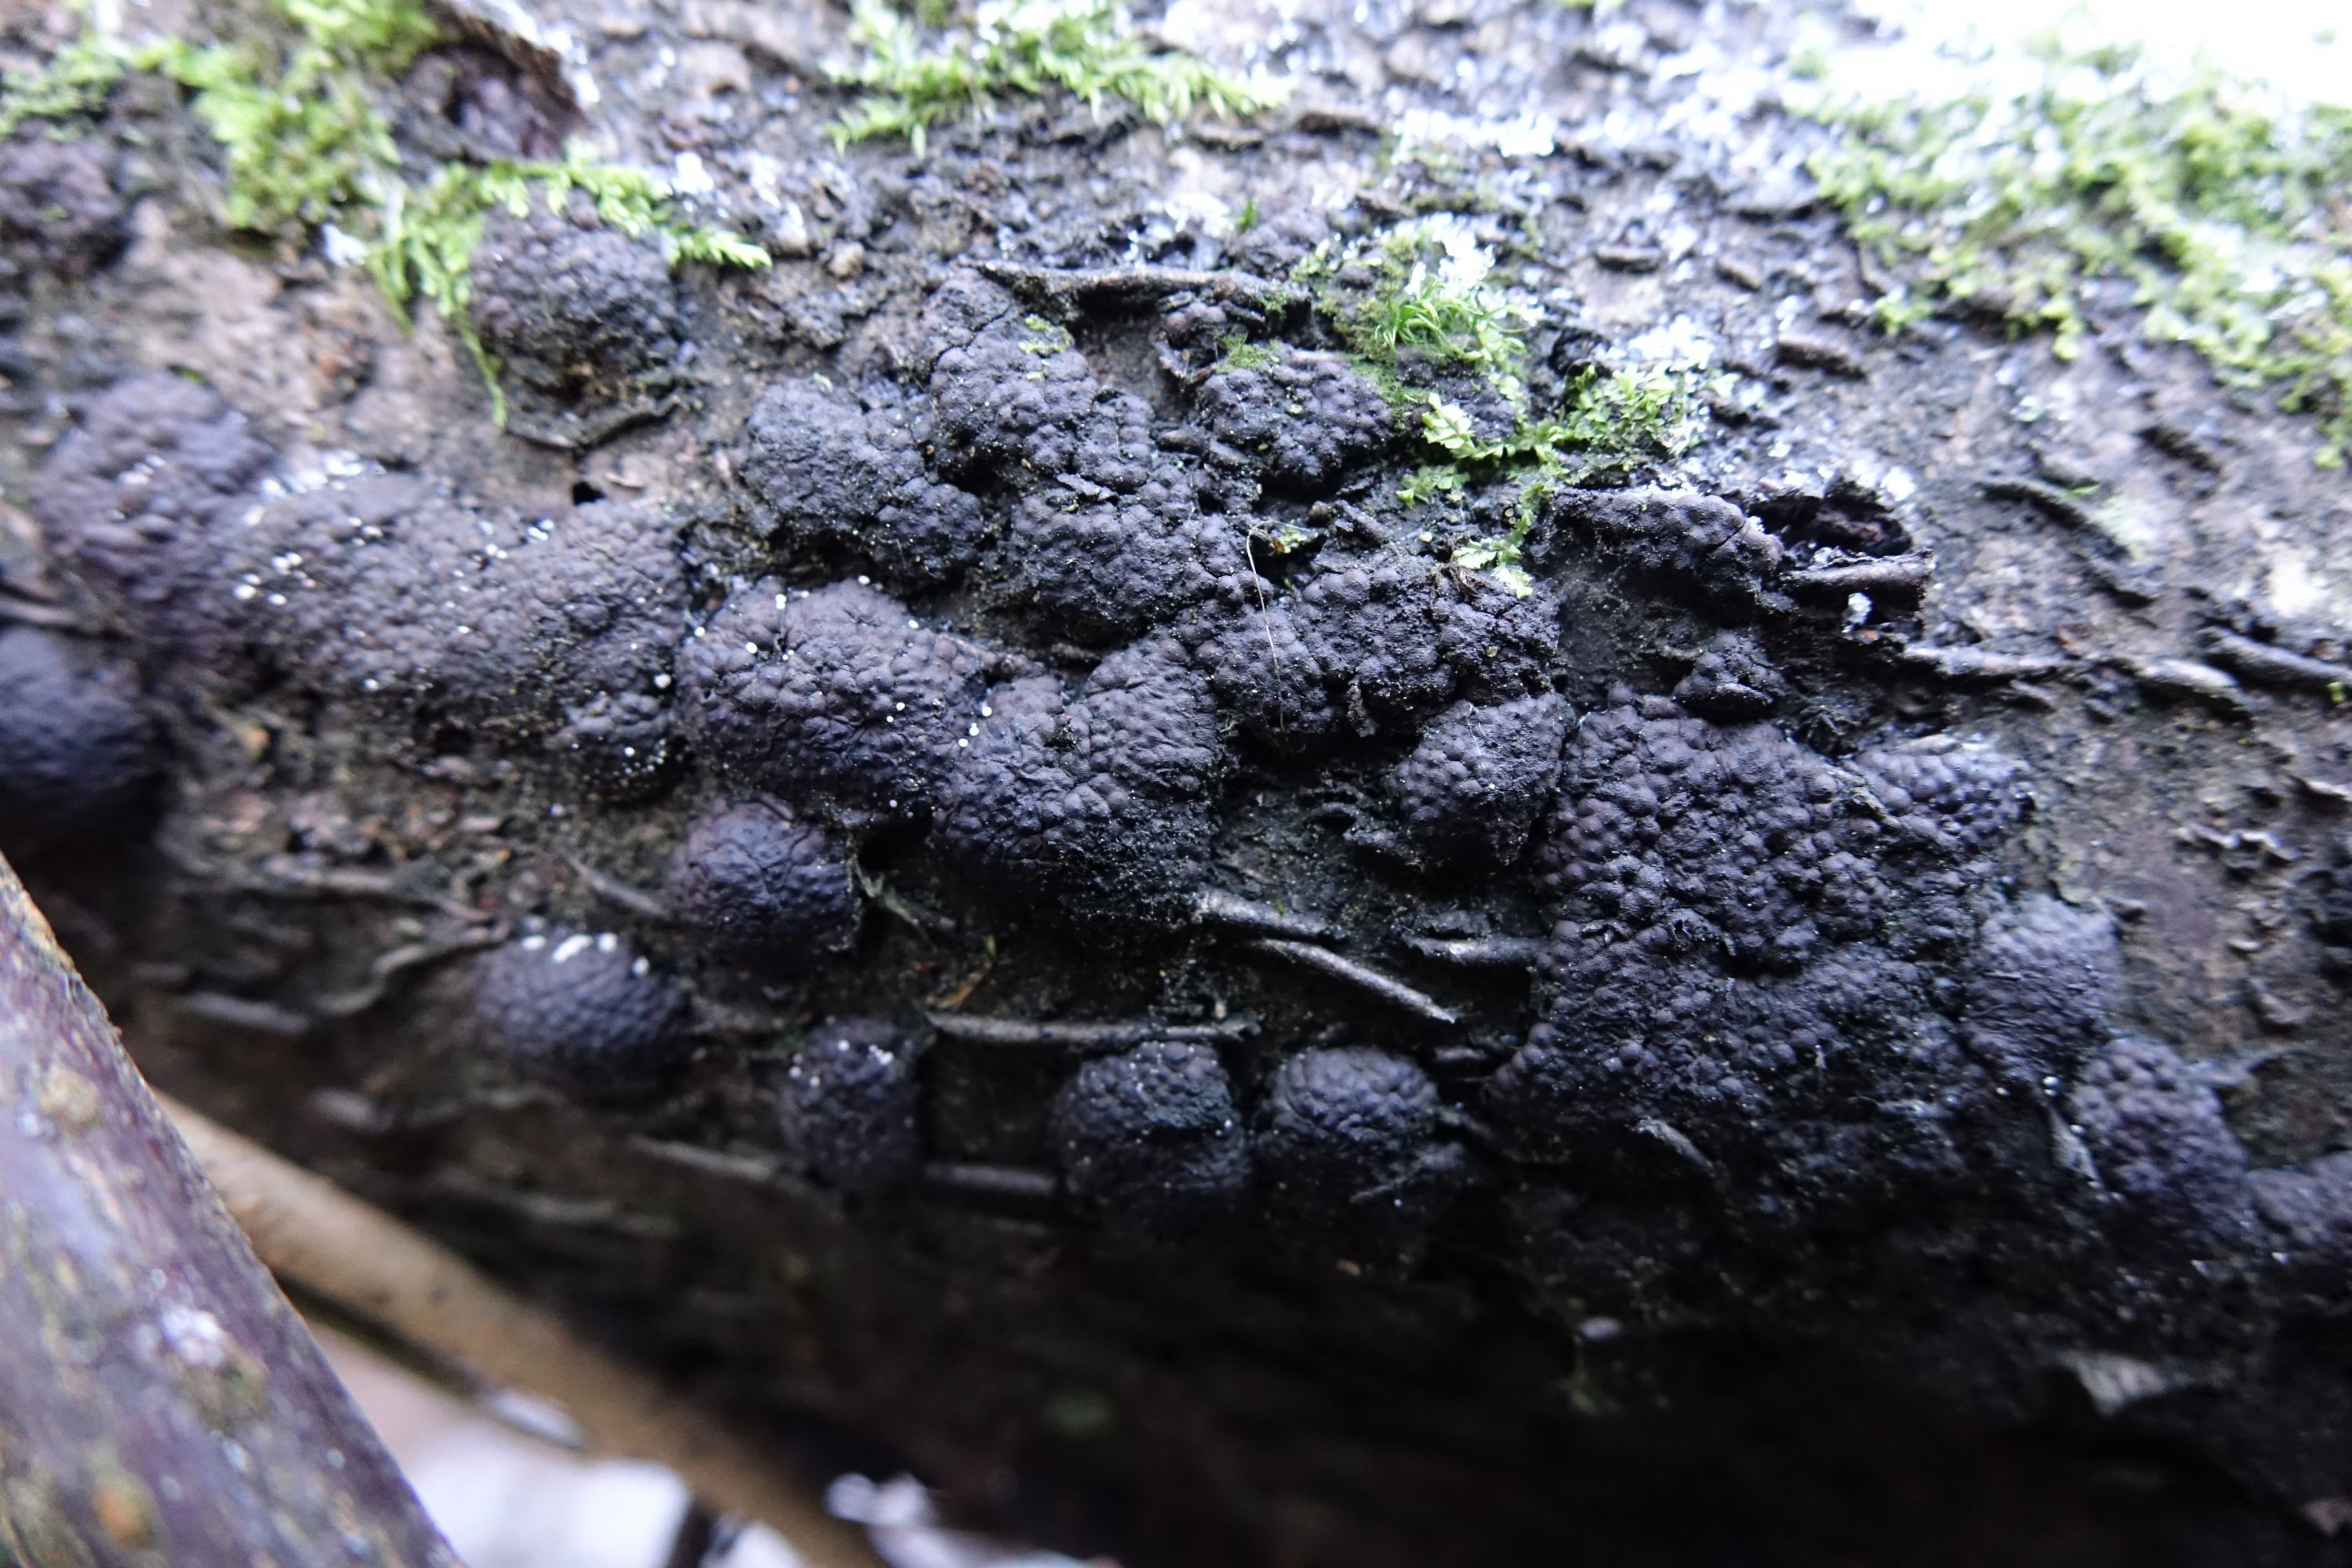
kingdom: Fungi
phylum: Ascomycota
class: Sordariomycetes
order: Xylariales
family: Hypoxylaceae
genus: Jackrogersella
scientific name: Jackrogersella multiformis
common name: Birch woodwart
